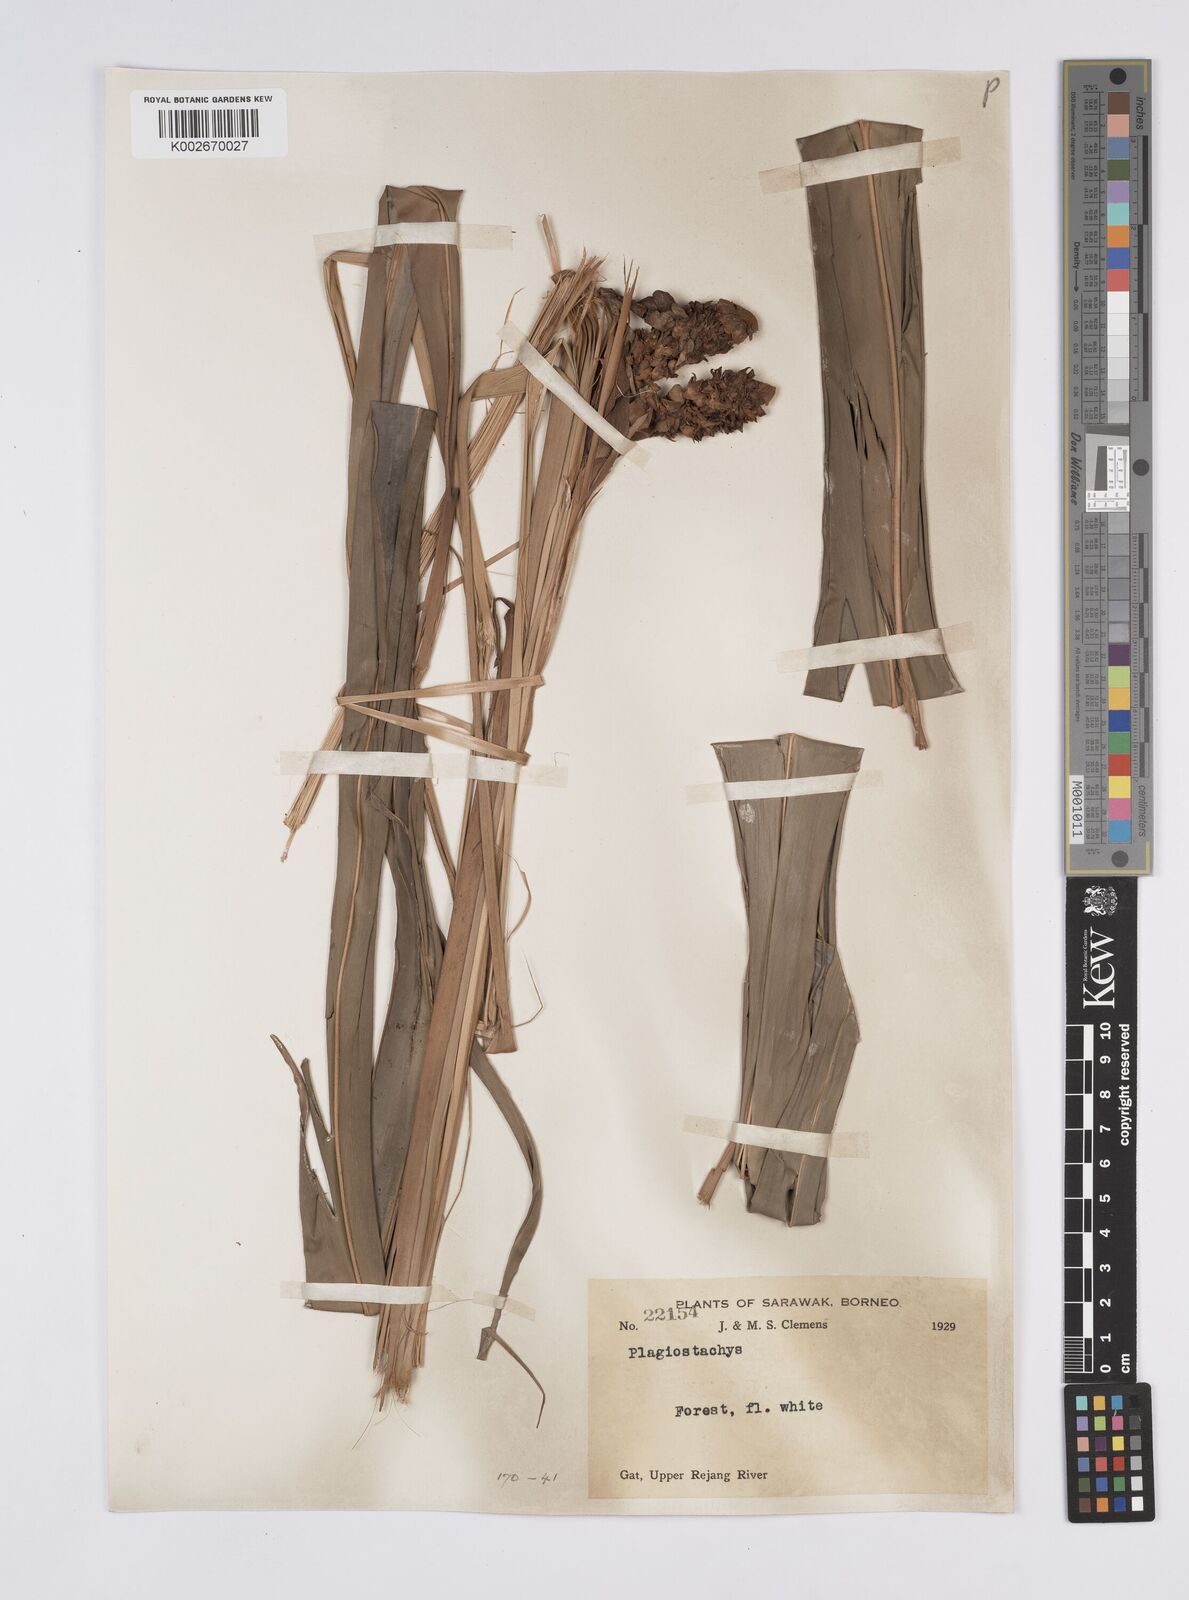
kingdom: Plantae
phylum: Tracheophyta
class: Liliopsida
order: Zingiberales
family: Zingiberaceae
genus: Plagiostachys
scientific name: Plagiostachys
